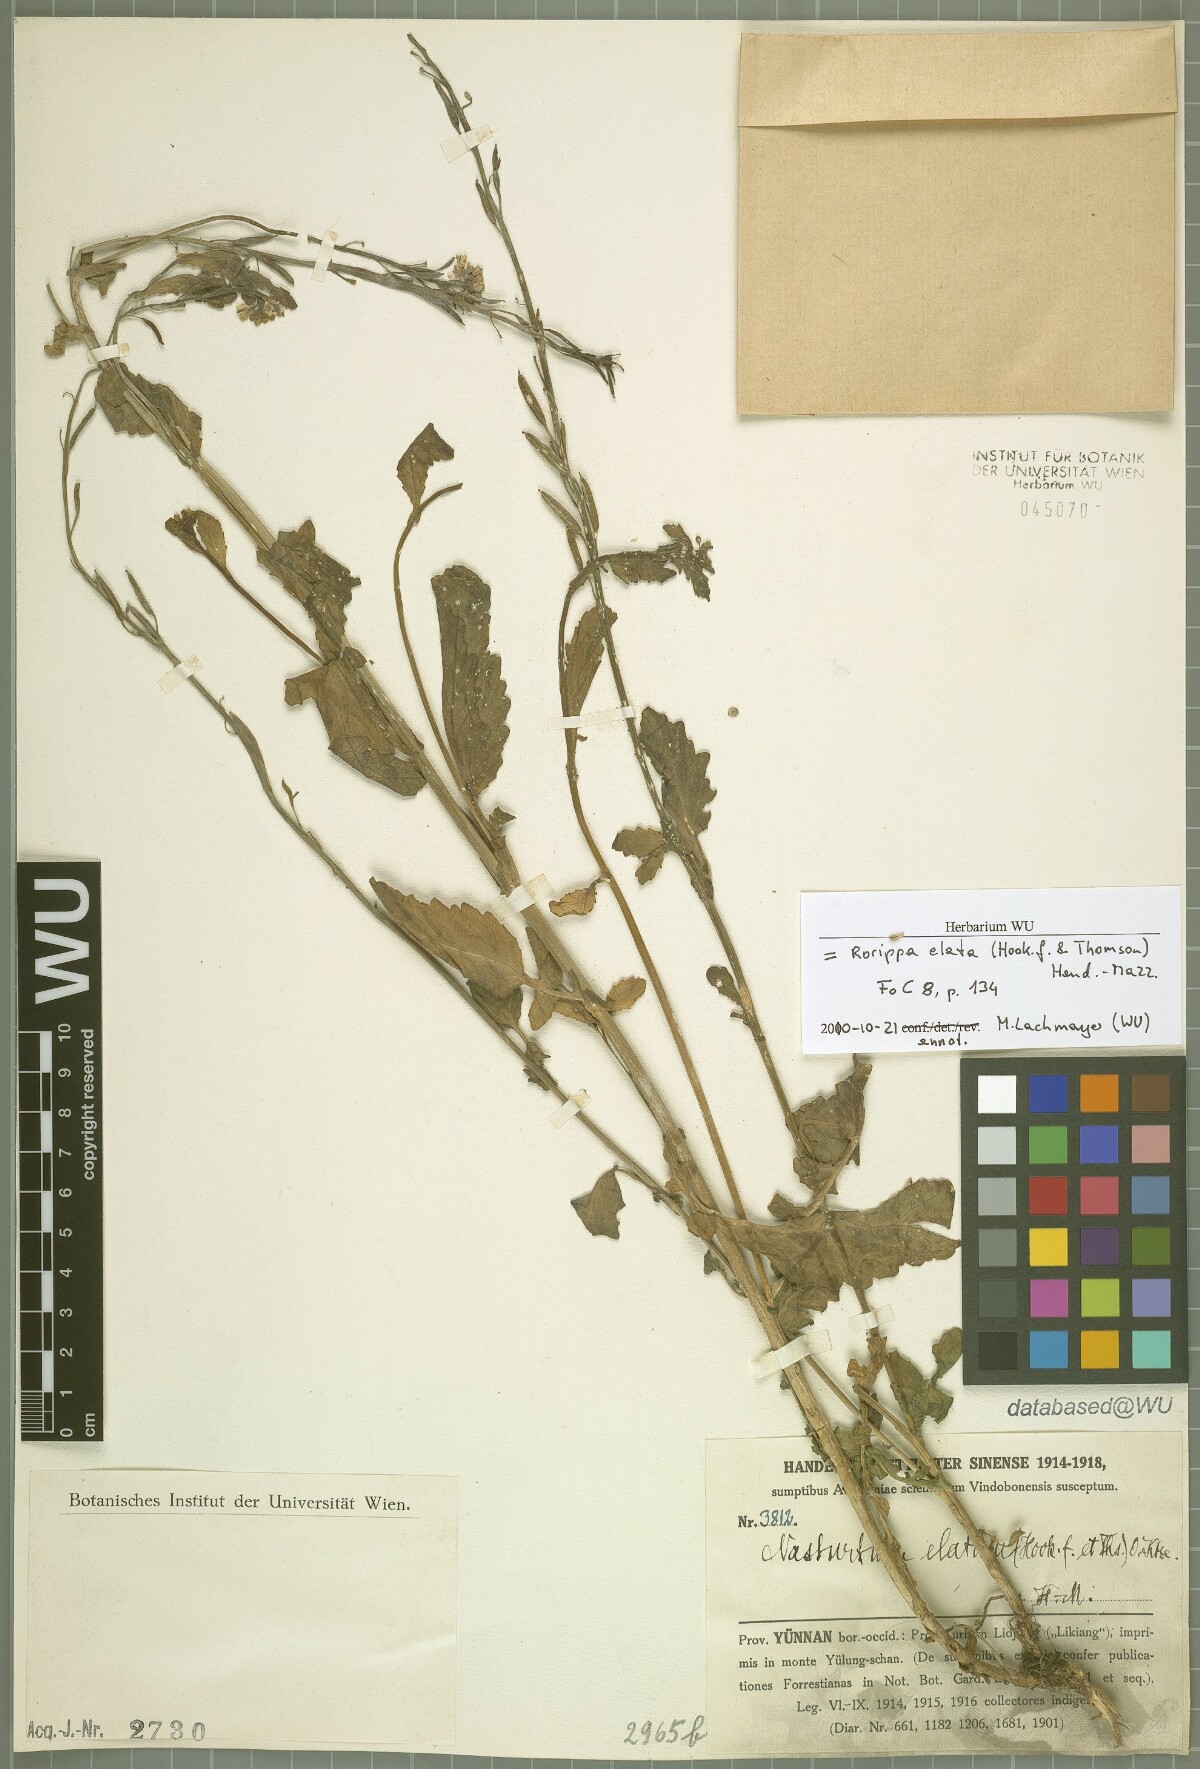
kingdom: Plantae
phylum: Tracheophyta
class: Magnoliopsida
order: Brassicales
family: Brassicaceae
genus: Rorippa
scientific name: Rorippa elata
